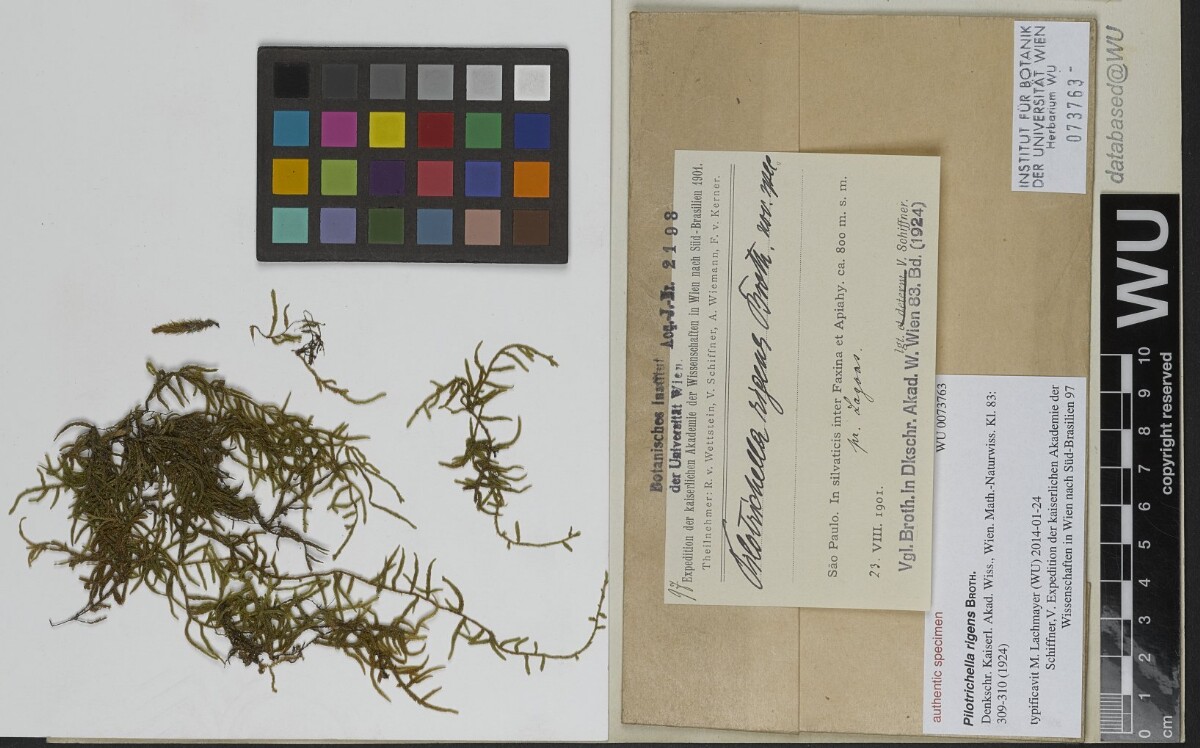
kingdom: Plantae
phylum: Bryophyta
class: Bryopsida
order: Hypnales
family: Orthostichellaceae
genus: Orthostichella
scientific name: Orthostichella pachygastrella
